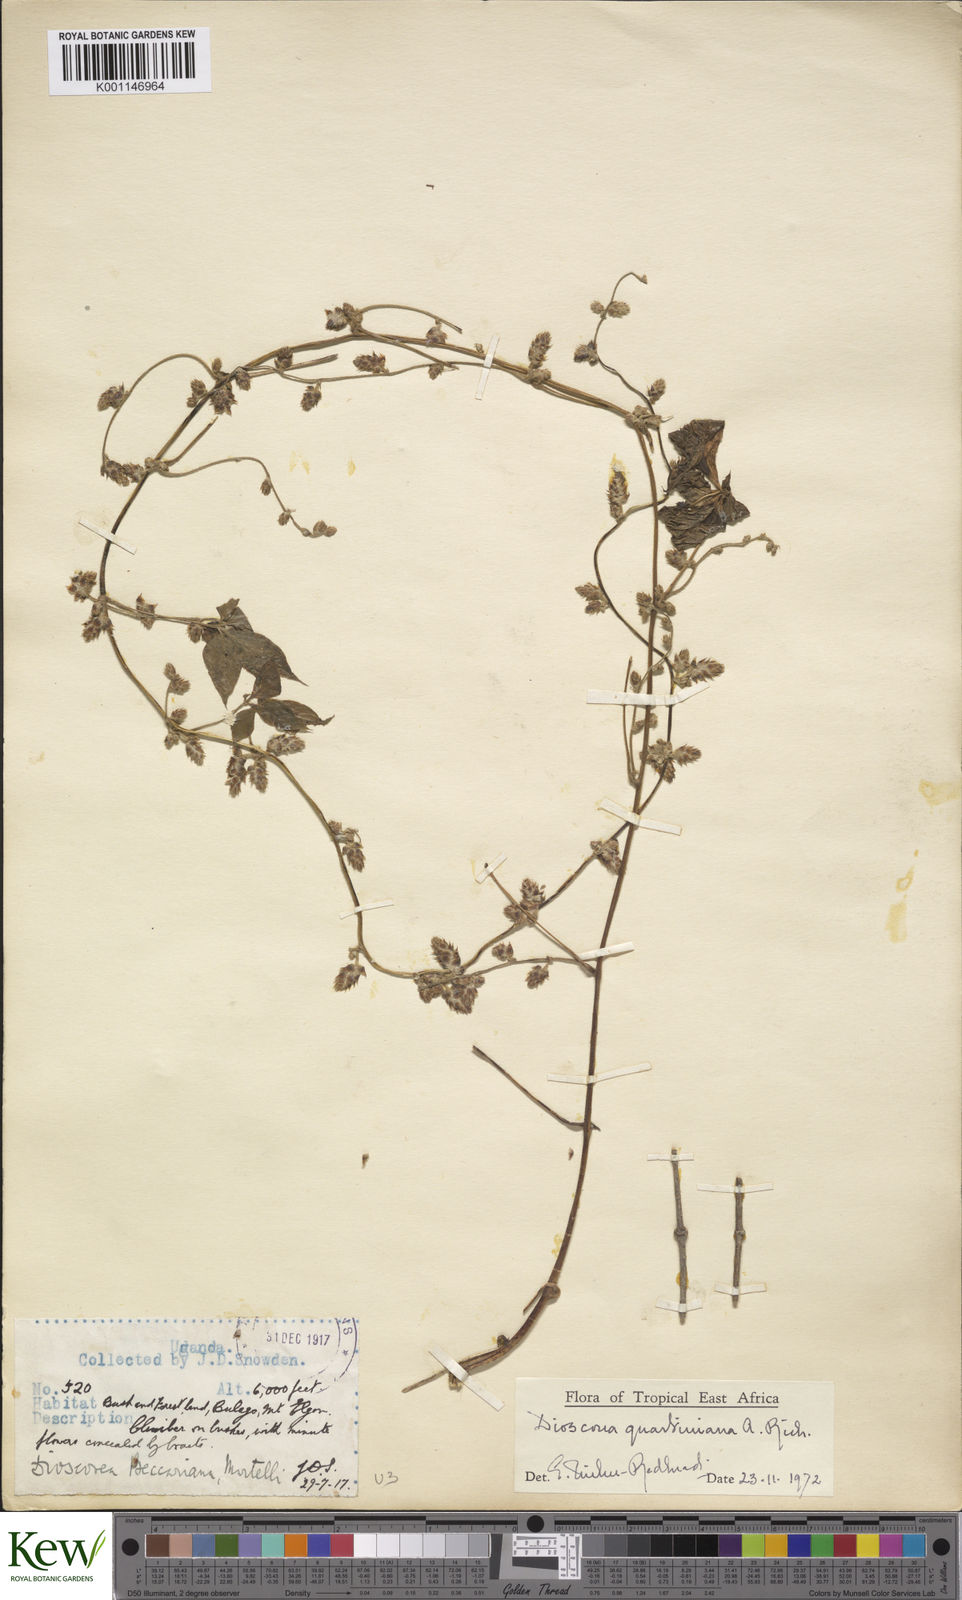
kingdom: Plantae
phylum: Tracheophyta
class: Liliopsida
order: Dioscoreales
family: Dioscoreaceae
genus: Dioscorea
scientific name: Dioscorea quartiniana
